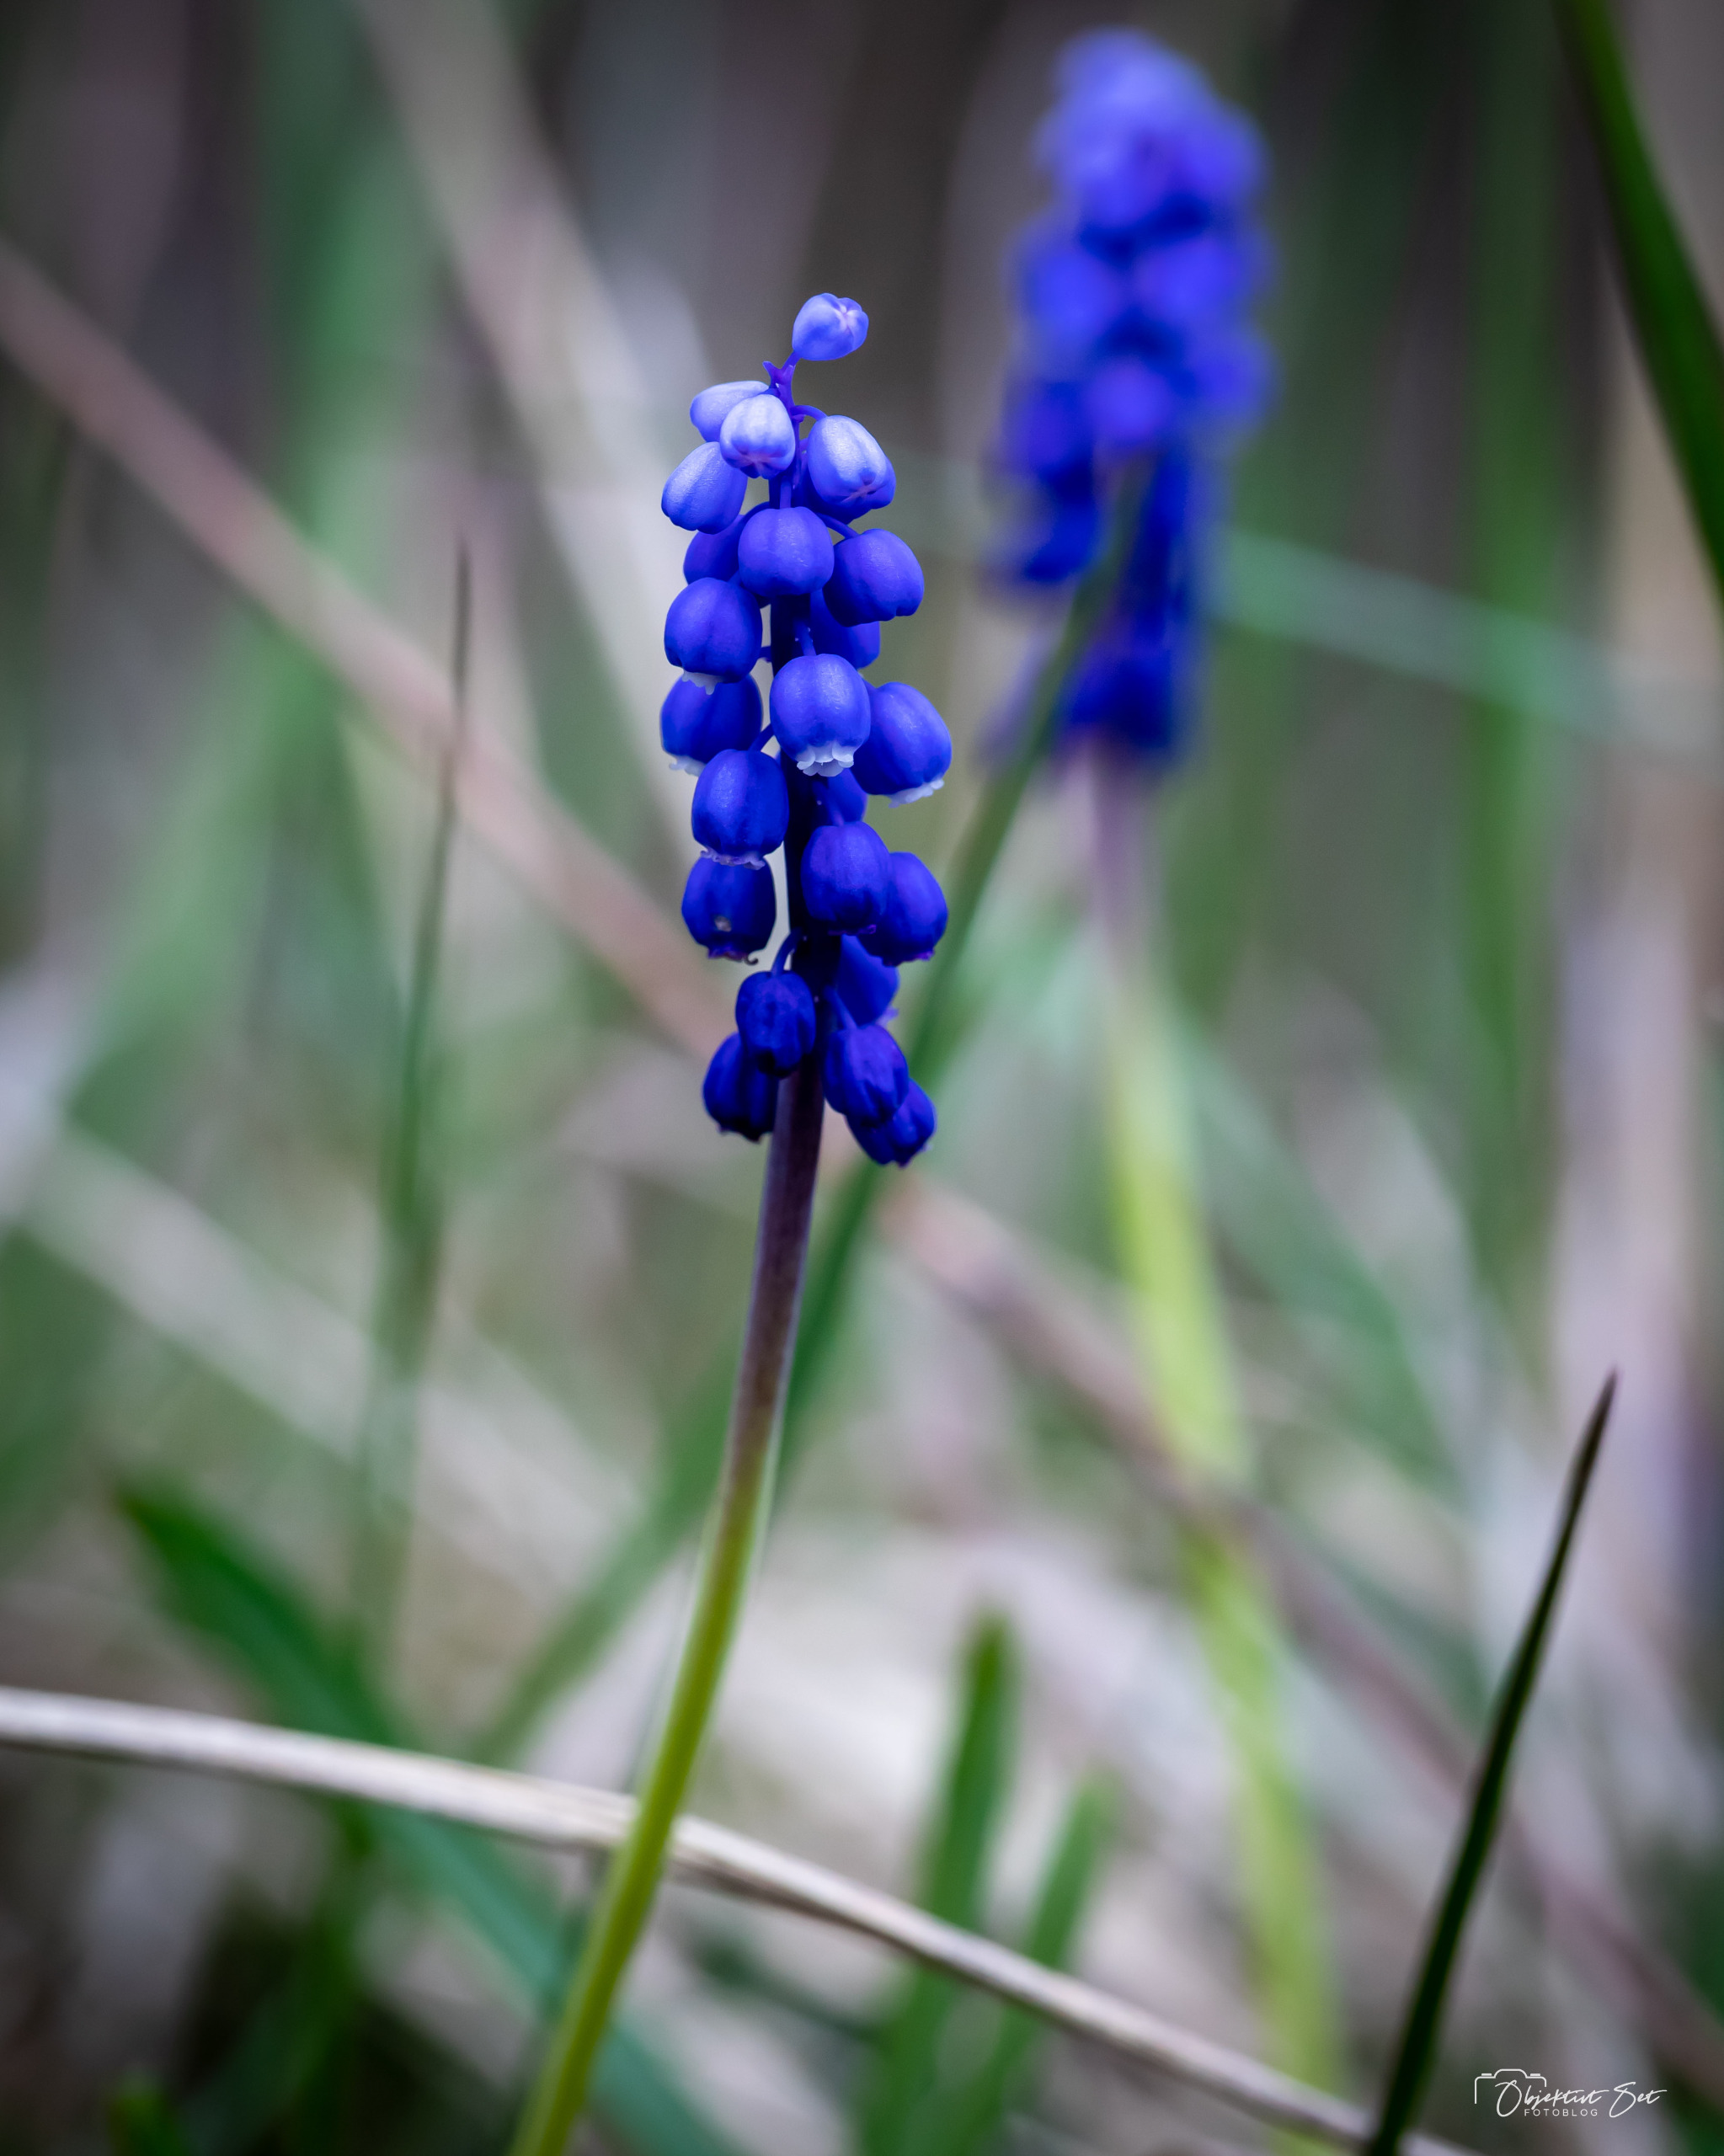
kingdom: Plantae
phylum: Tracheophyta
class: Liliopsida
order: Asparagales
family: Asparagaceae
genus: Muscari
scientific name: Muscari botryoides
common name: Perlehyacint
